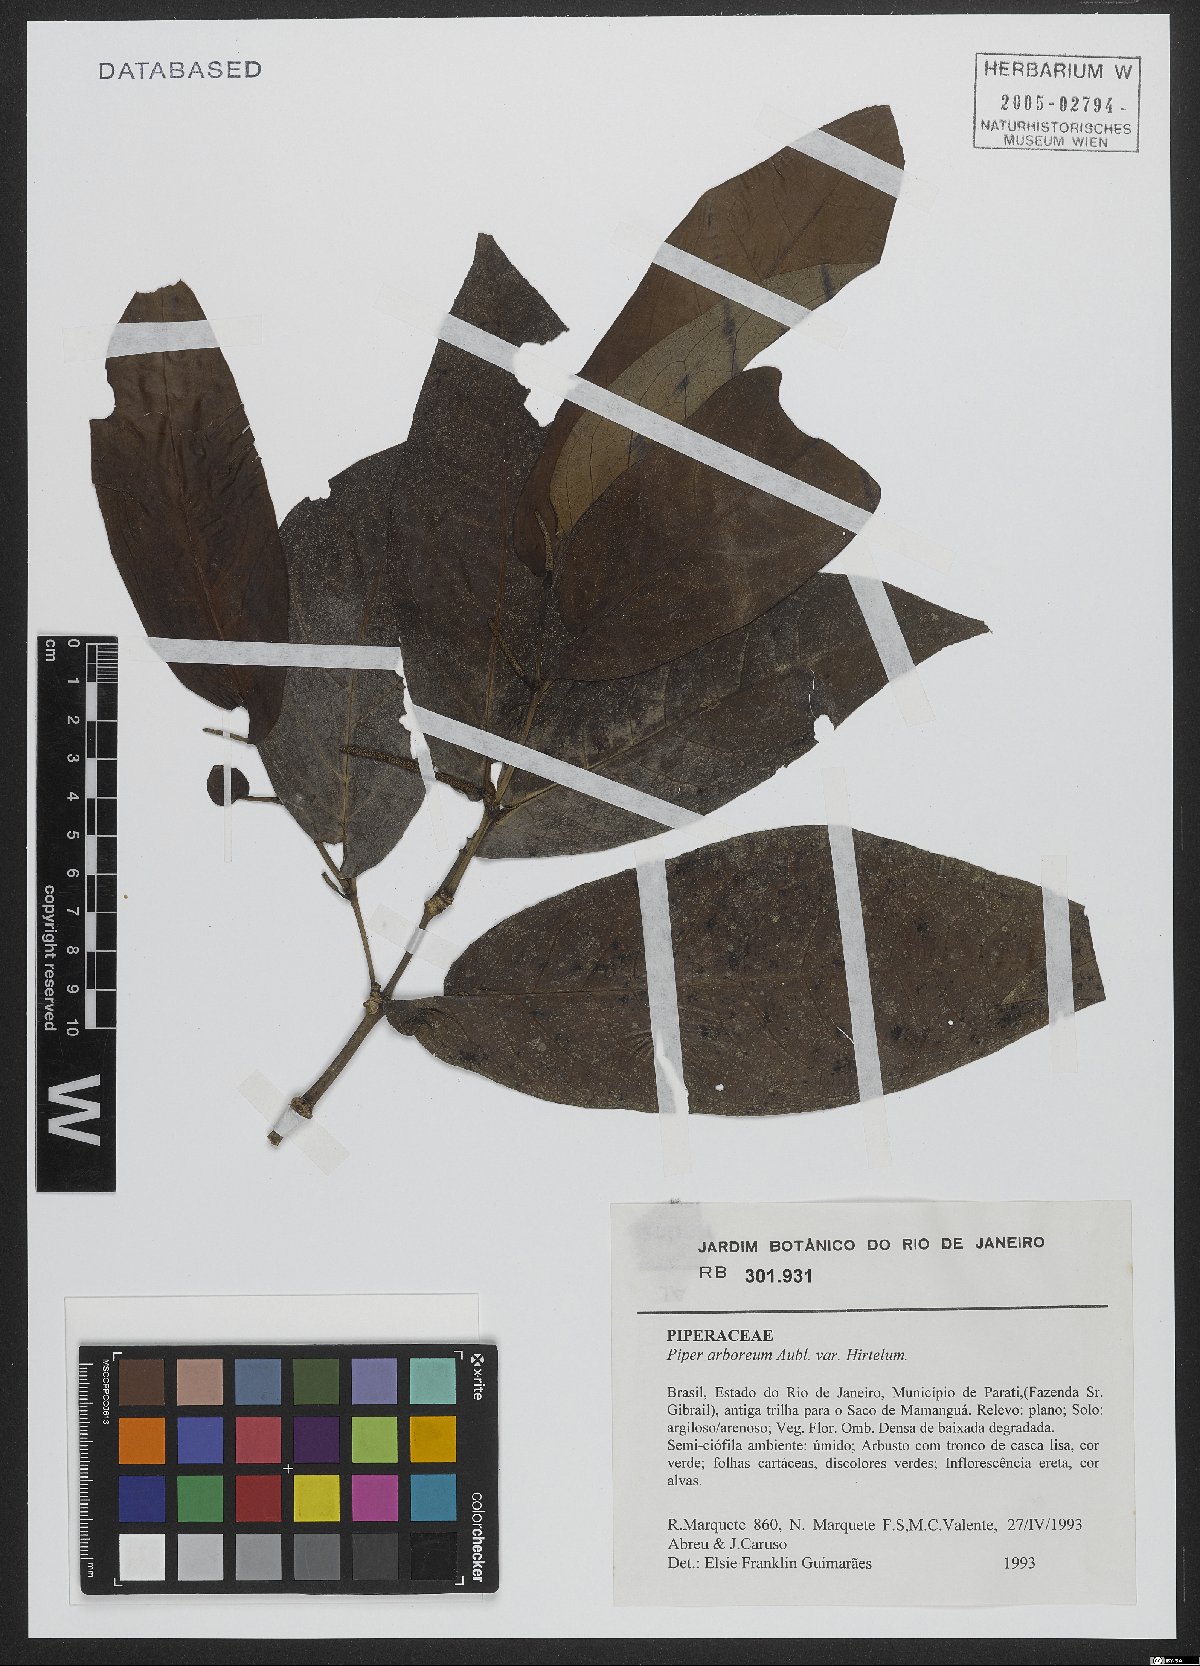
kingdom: Plantae
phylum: Tracheophyta
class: Magnoliopsida
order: Piperales
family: Piperaceae
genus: Piper
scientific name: Piper arboreum
